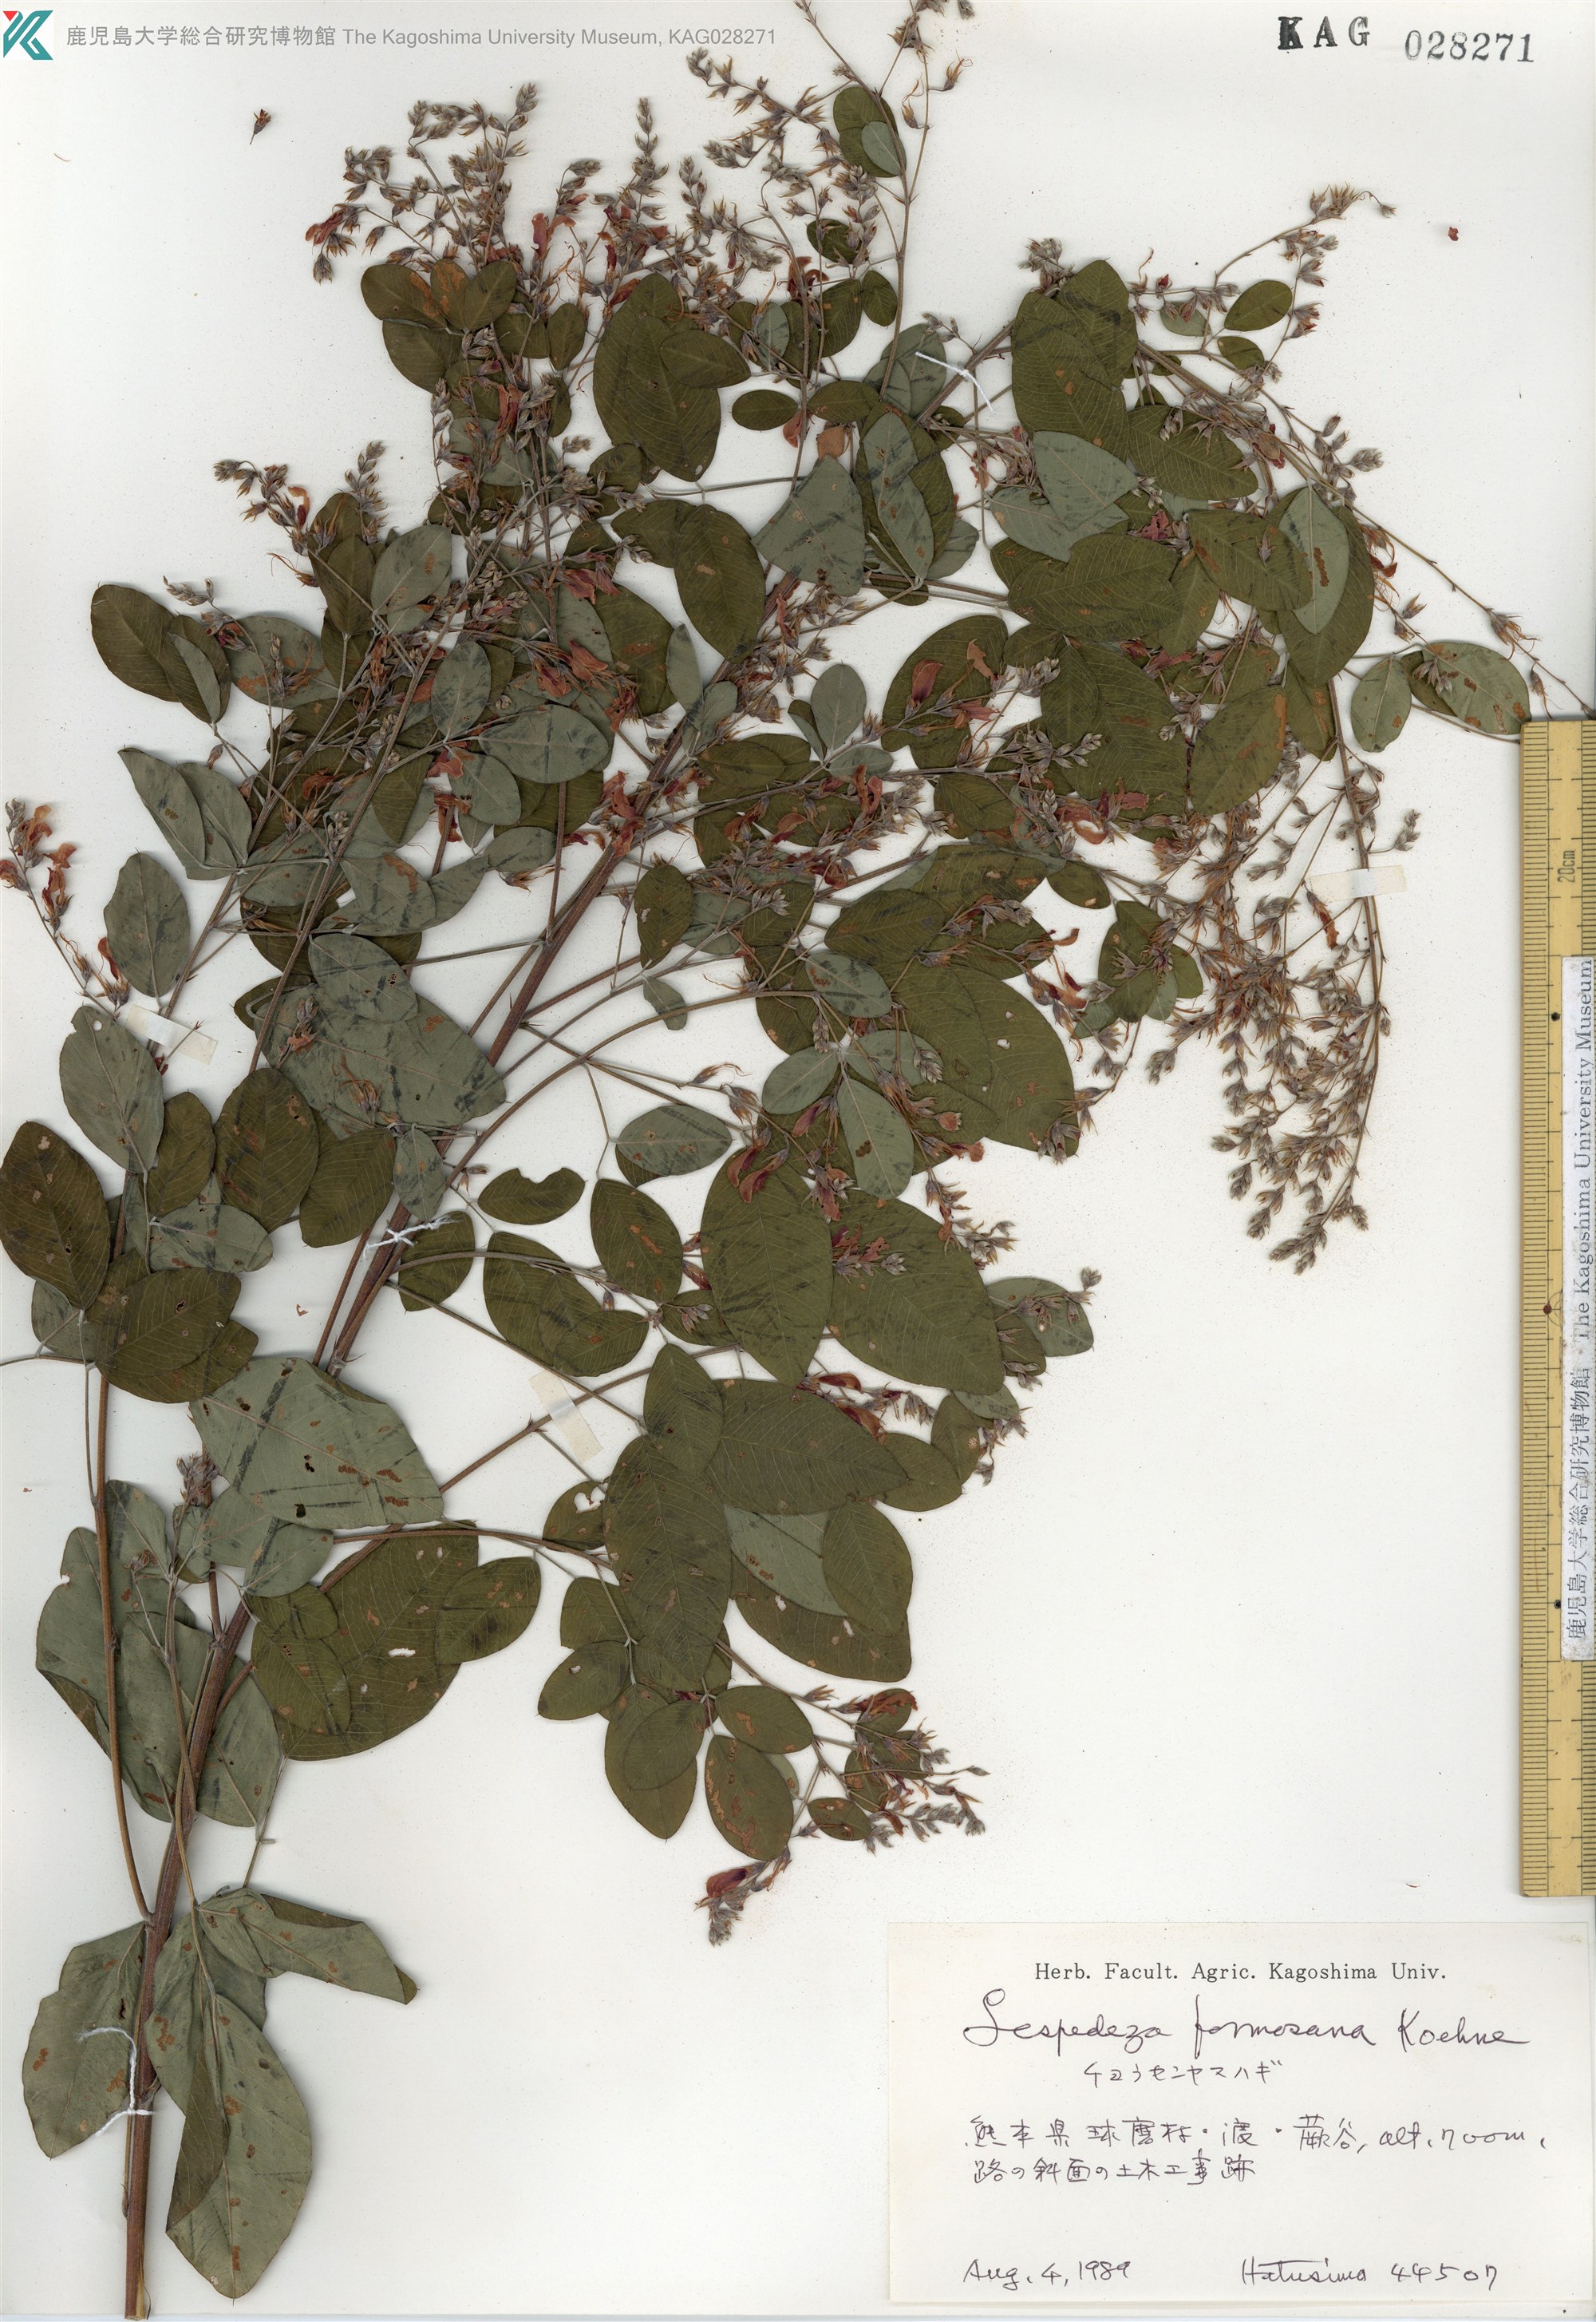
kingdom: Plantae
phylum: Tracheophyta
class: Magnoliopsida
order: Fabales
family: Fabaceae
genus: Lespedeza
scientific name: Lespedeza thunbergii
